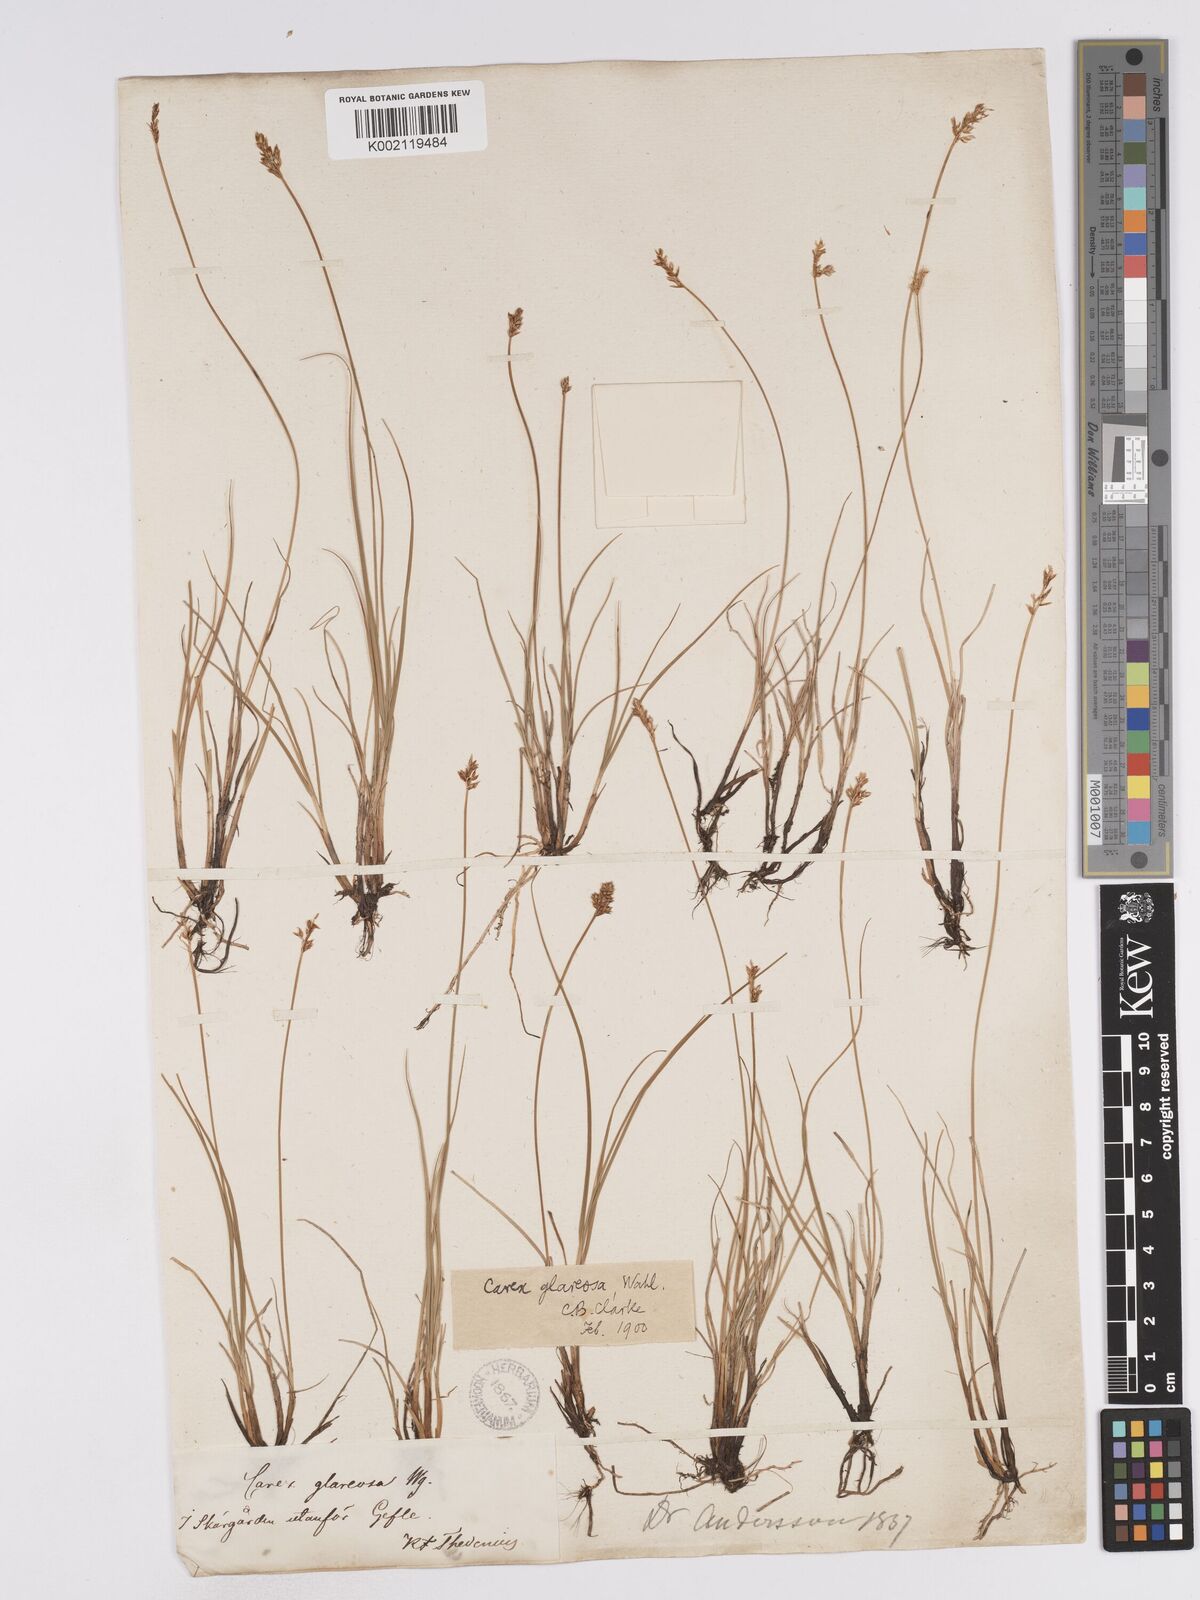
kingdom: Plantae
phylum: Tracheophyta
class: Liliopsida
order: Poales
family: Cyperaceae
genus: Carex
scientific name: Carex glareosa
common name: Clustered sedge
